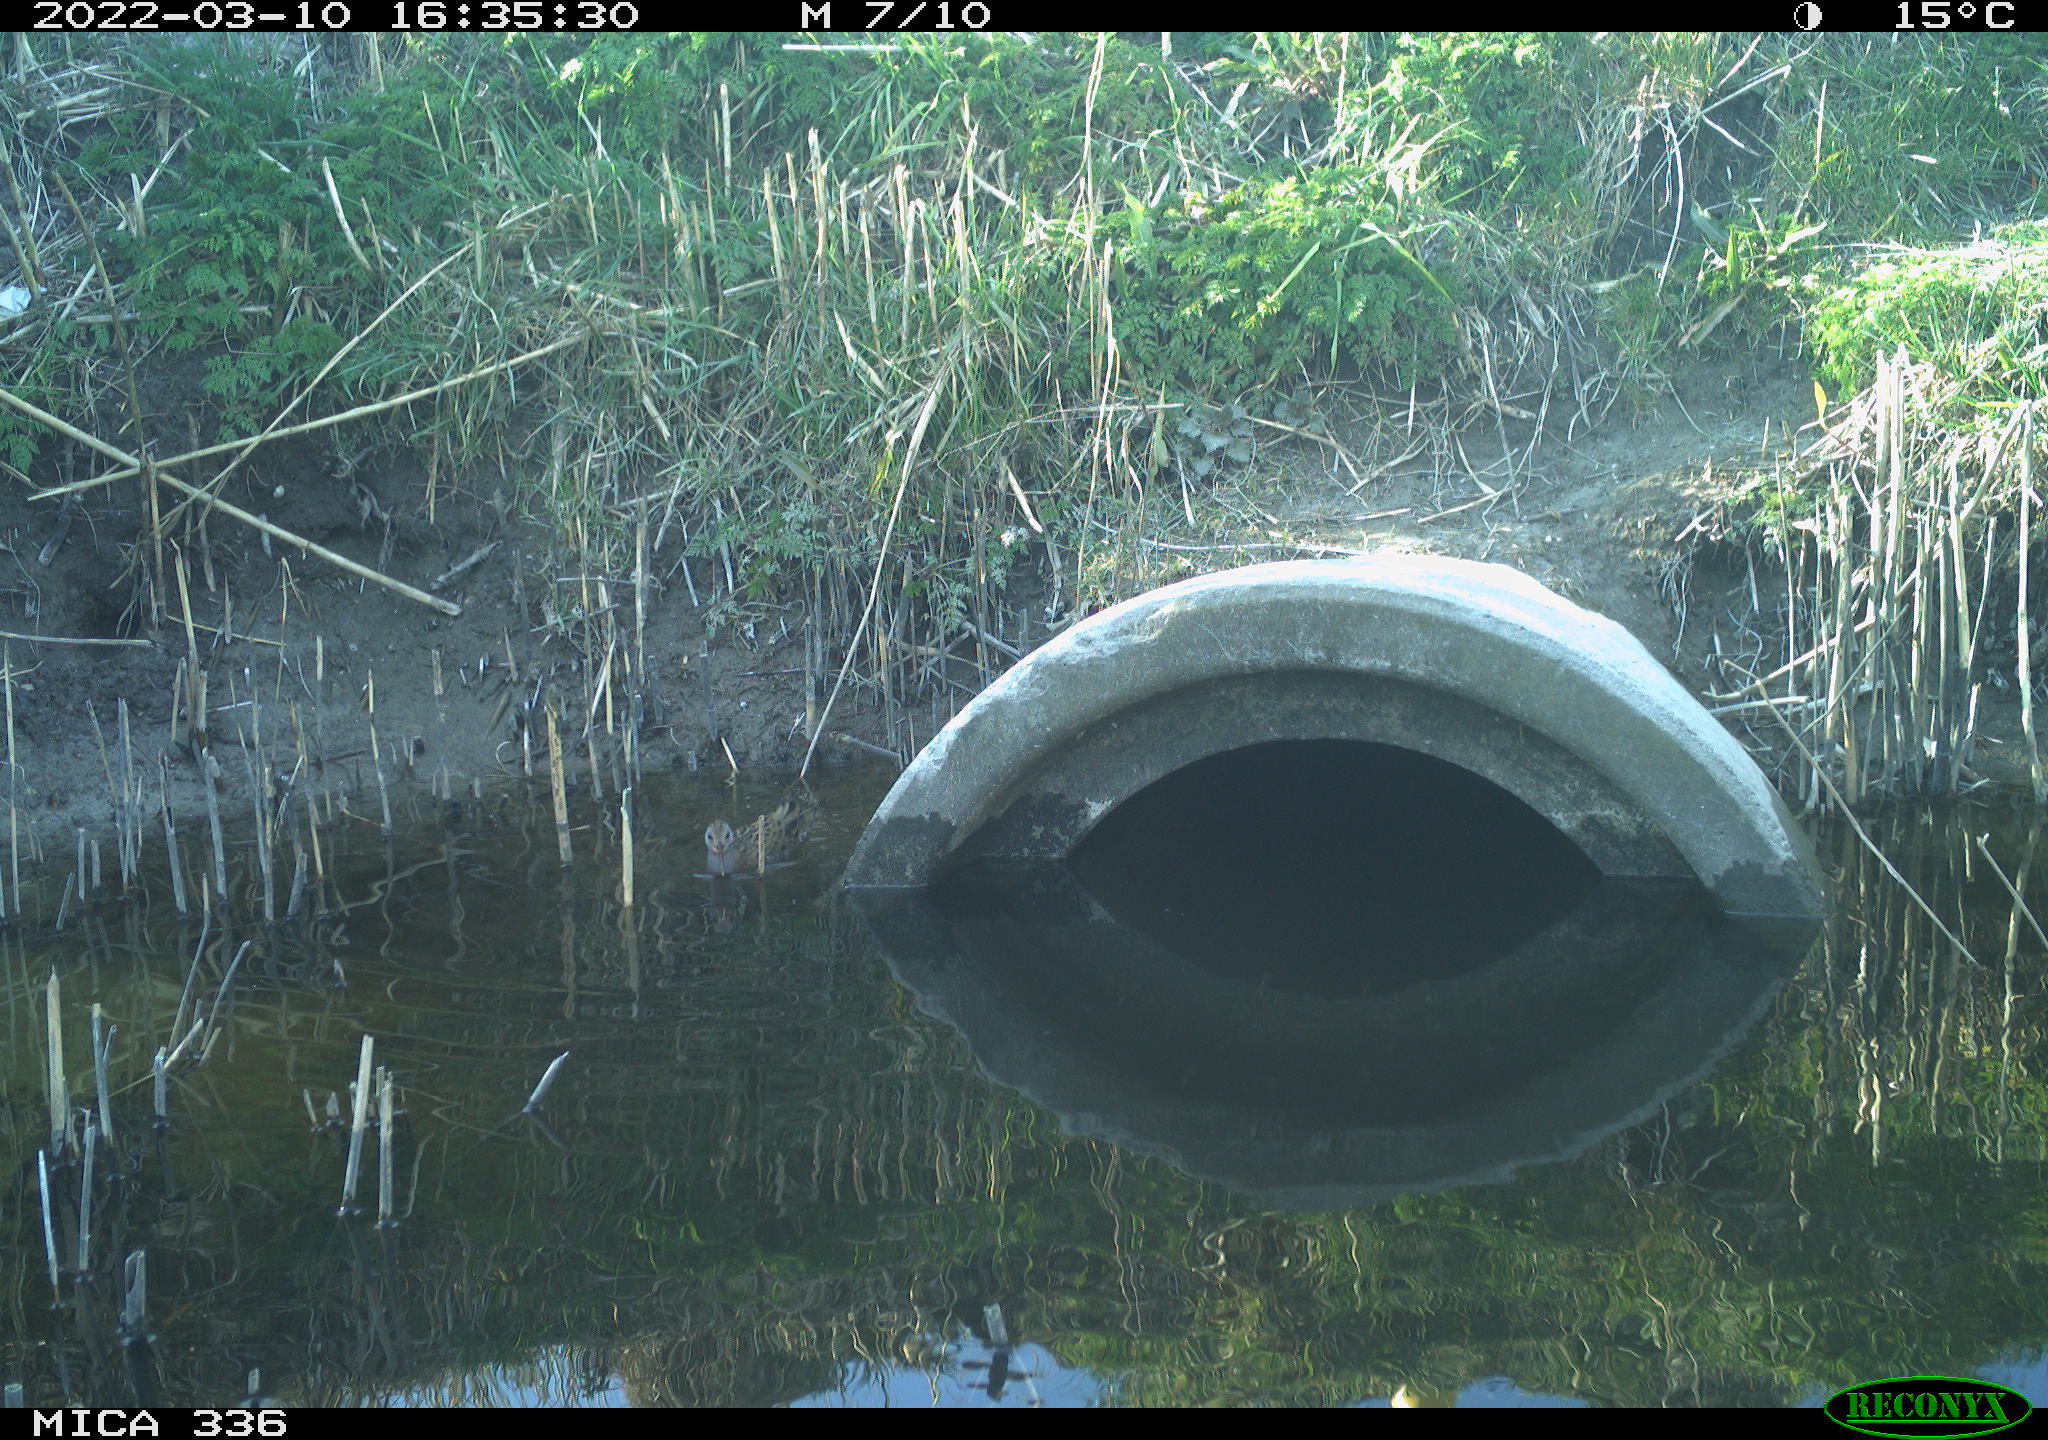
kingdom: Animalia
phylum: Chordata
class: Aves
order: Gruiformes
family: Rallidae
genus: Rallus
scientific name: Rallus aquaticus
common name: Water rail
